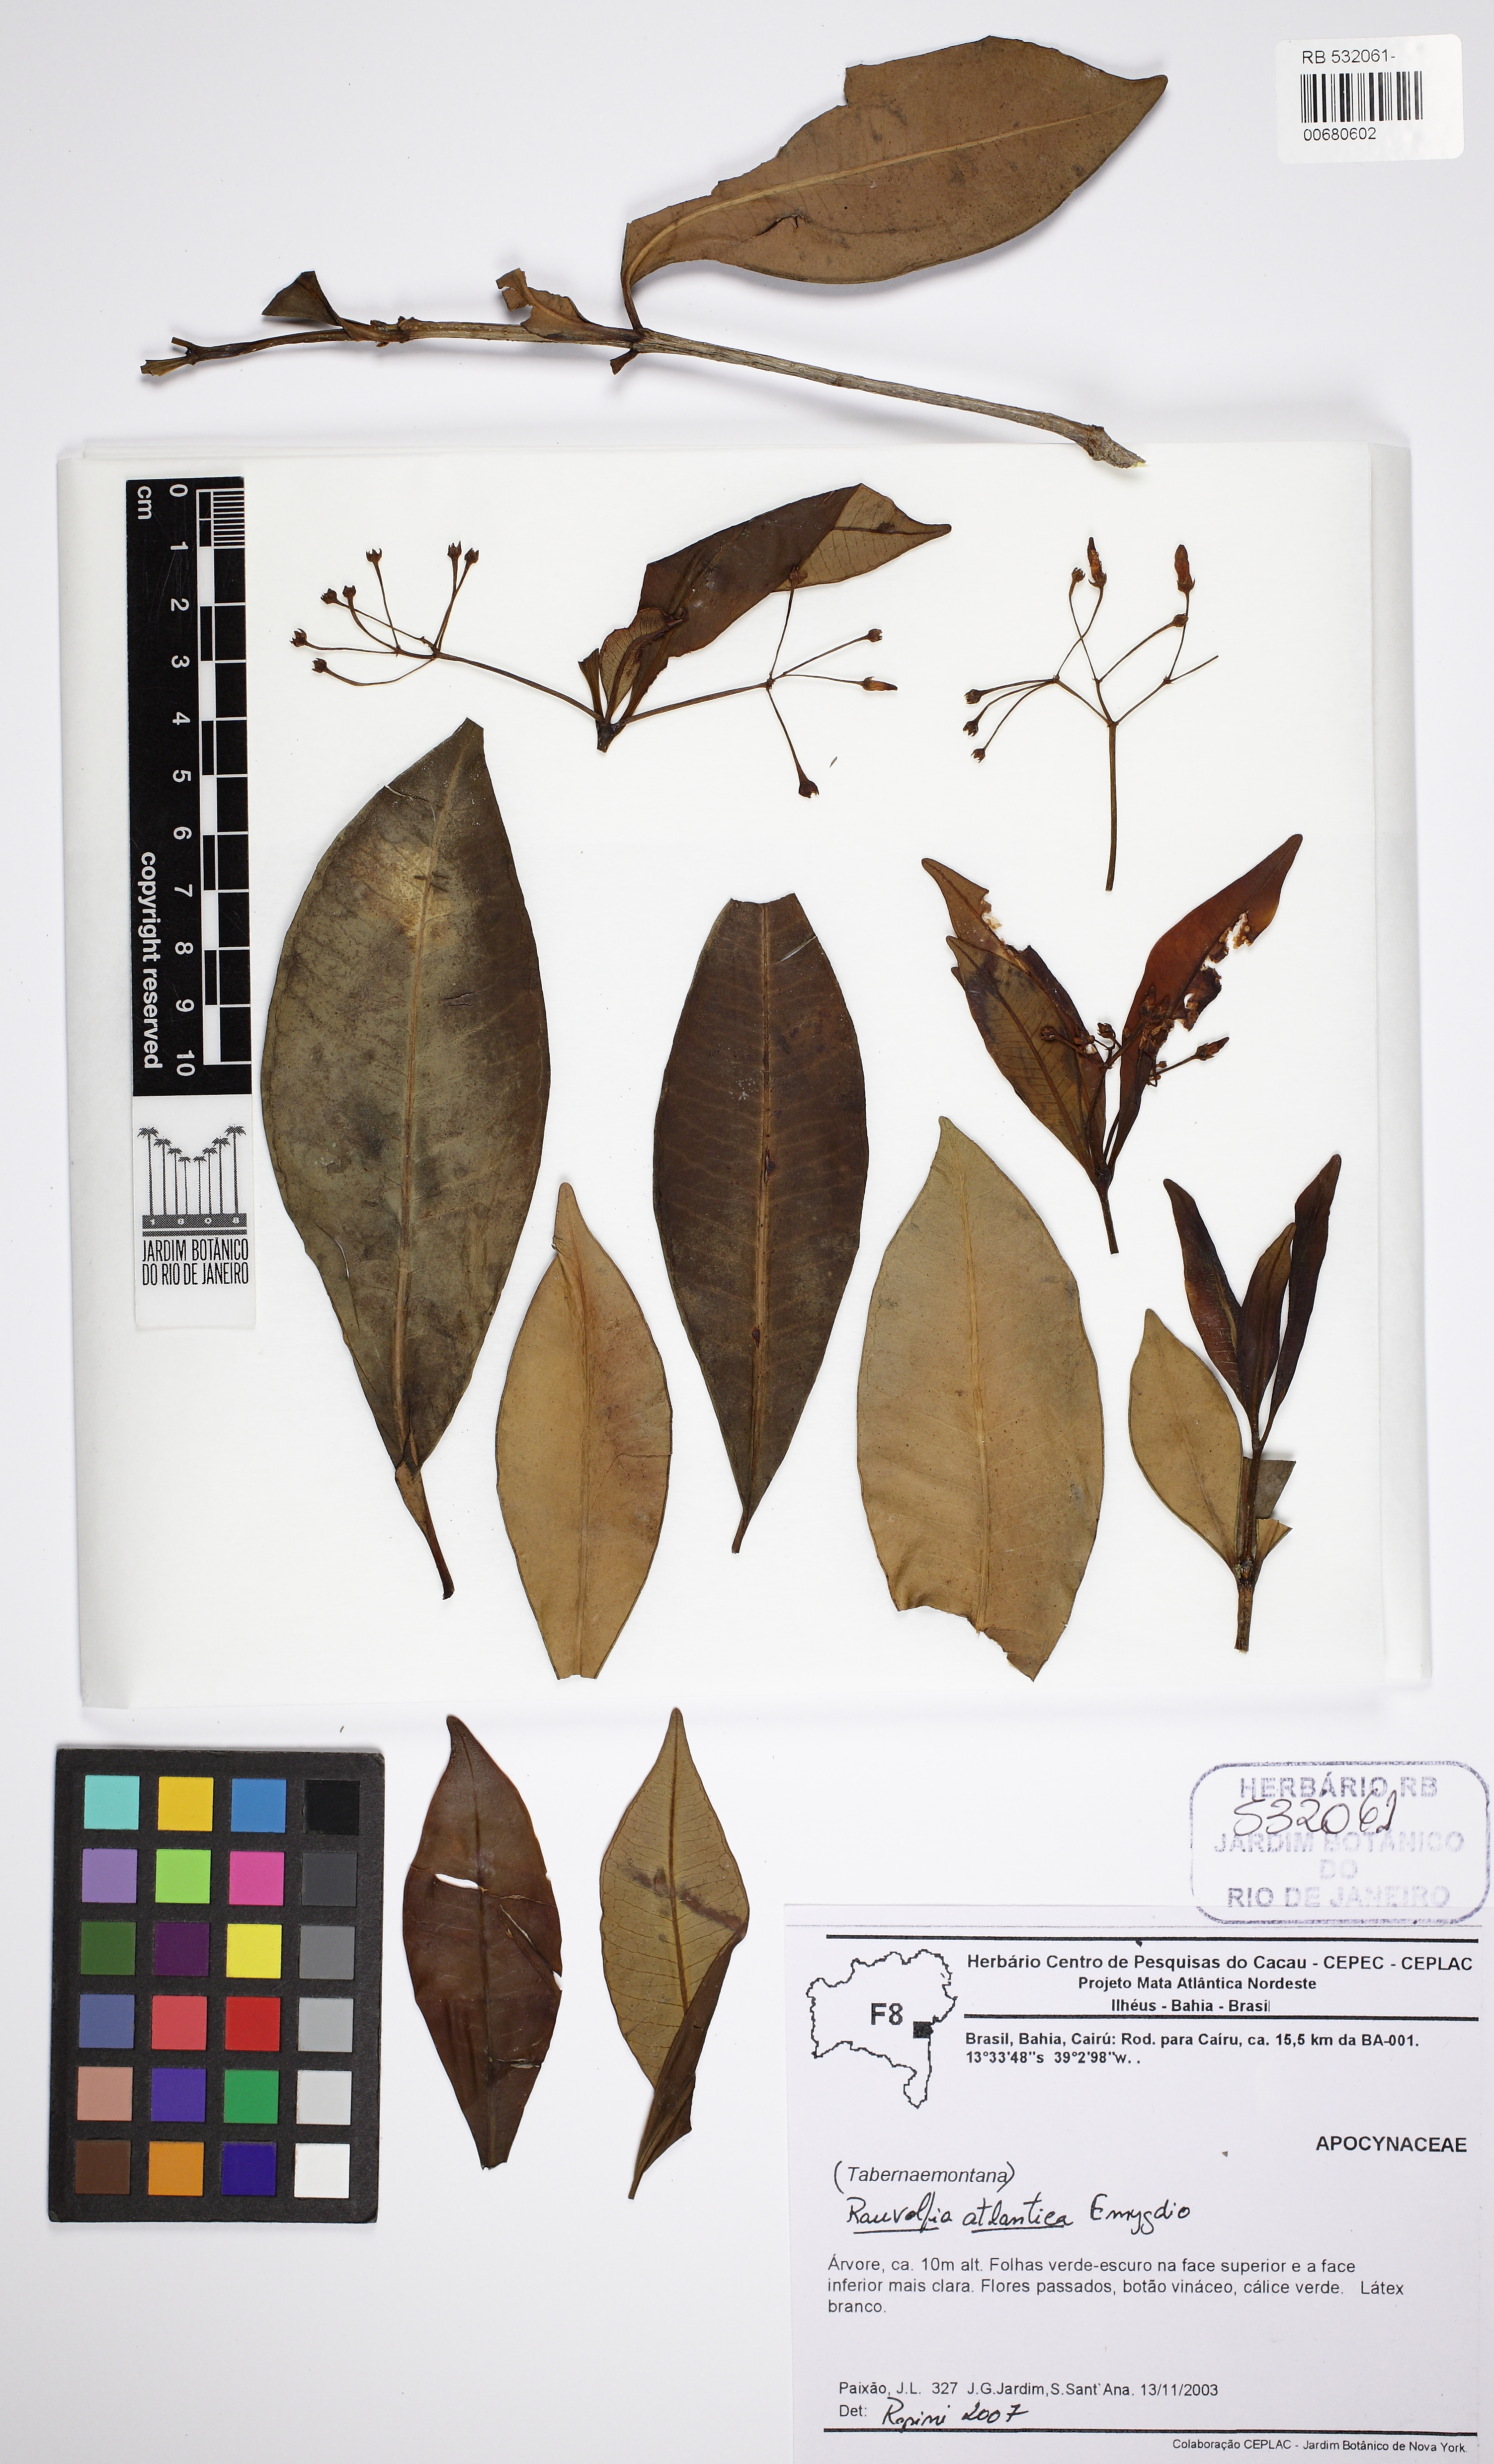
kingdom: Plantae
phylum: Tracheophyta
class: Magnoliopsida
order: Gentianales
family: Apocynaceae
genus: Rauvolfia
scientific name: Rauvolfia atlantica
